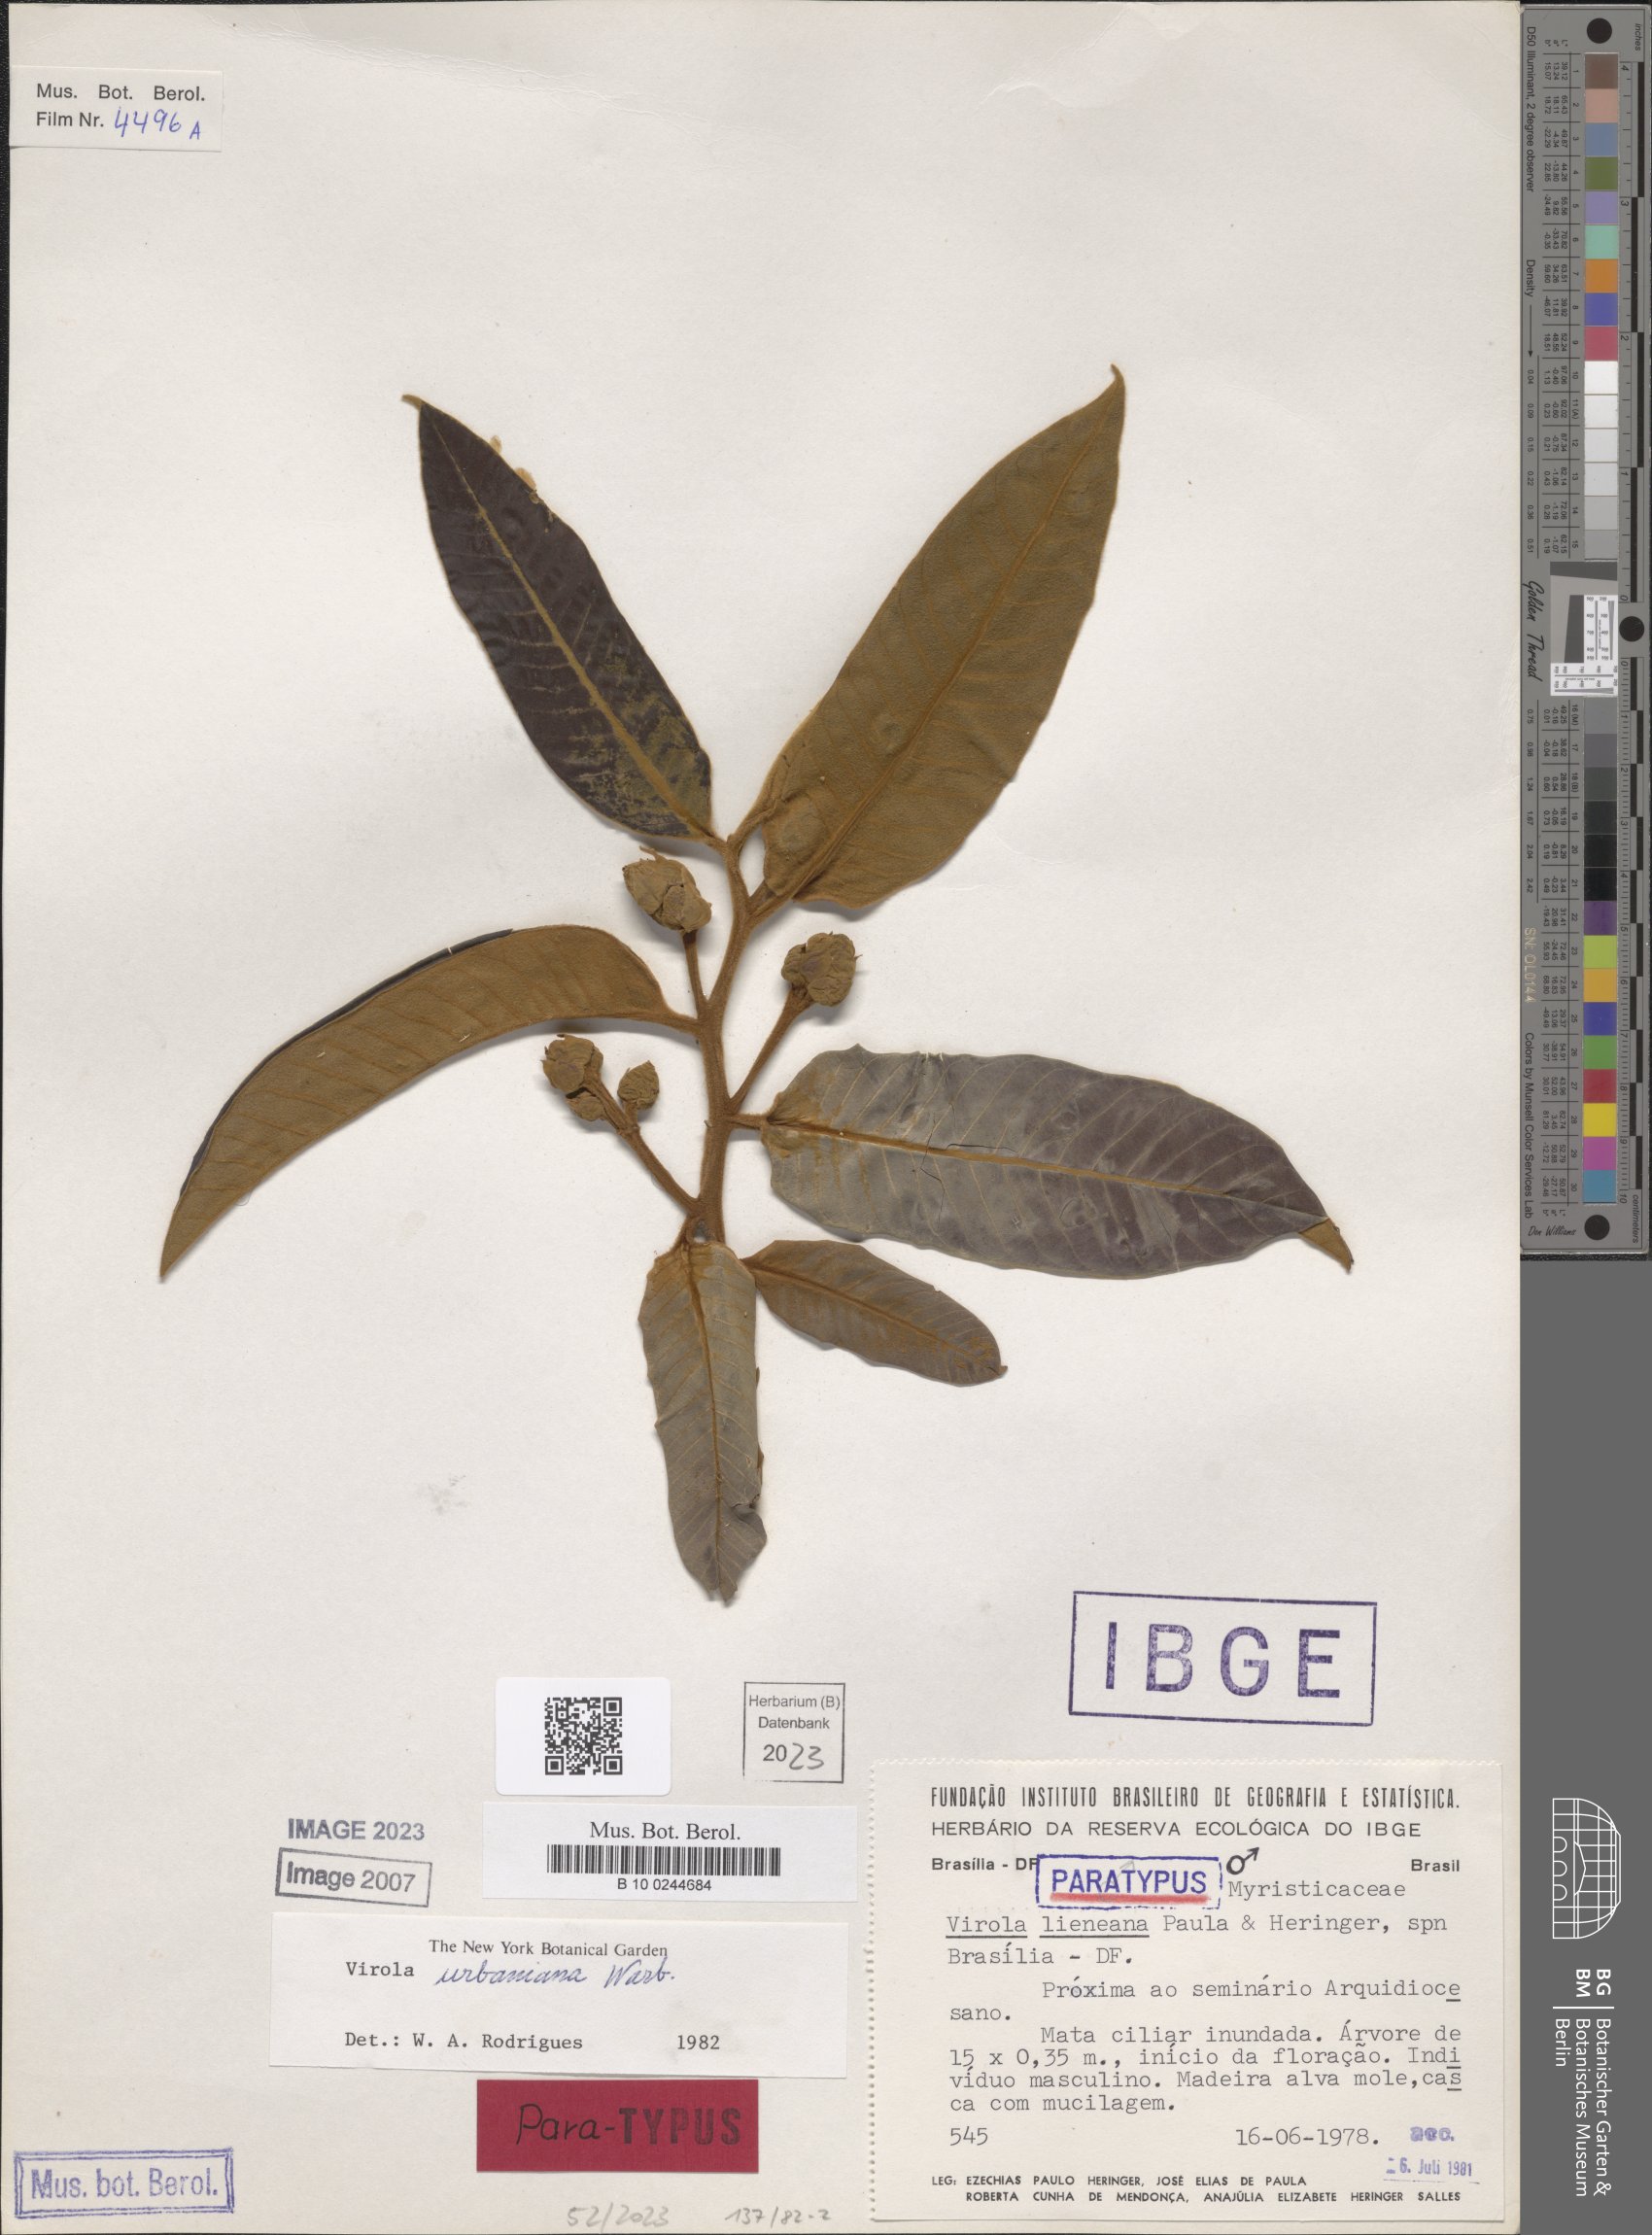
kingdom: Plantae
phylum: Tracheophyta
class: Magnoliopsida
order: Magnoliales
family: Myristicaceae
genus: Virola
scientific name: Virola urbaniana
